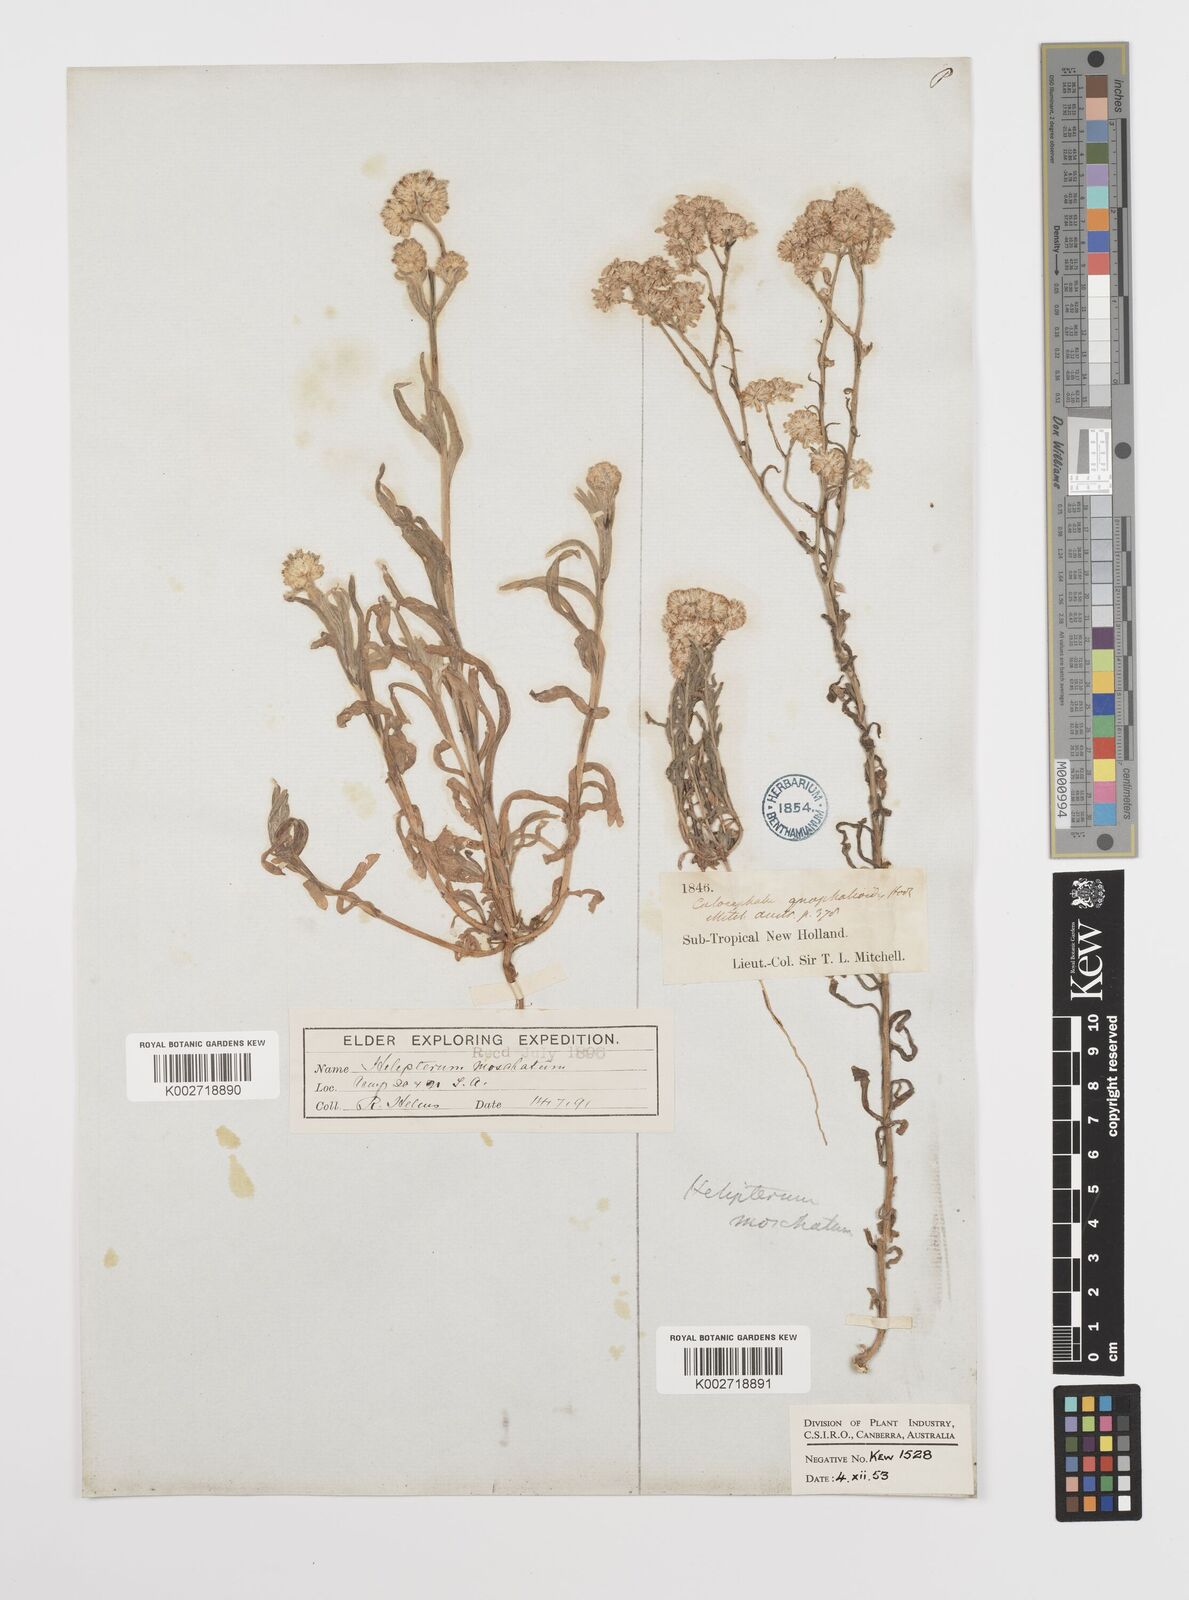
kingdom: Plantae
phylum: Tracheophyta
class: Magnoliopsida
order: Asterales
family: Asteraceae
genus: Rhodanthe
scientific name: Rhodanthe moschata
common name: Musk sunray
